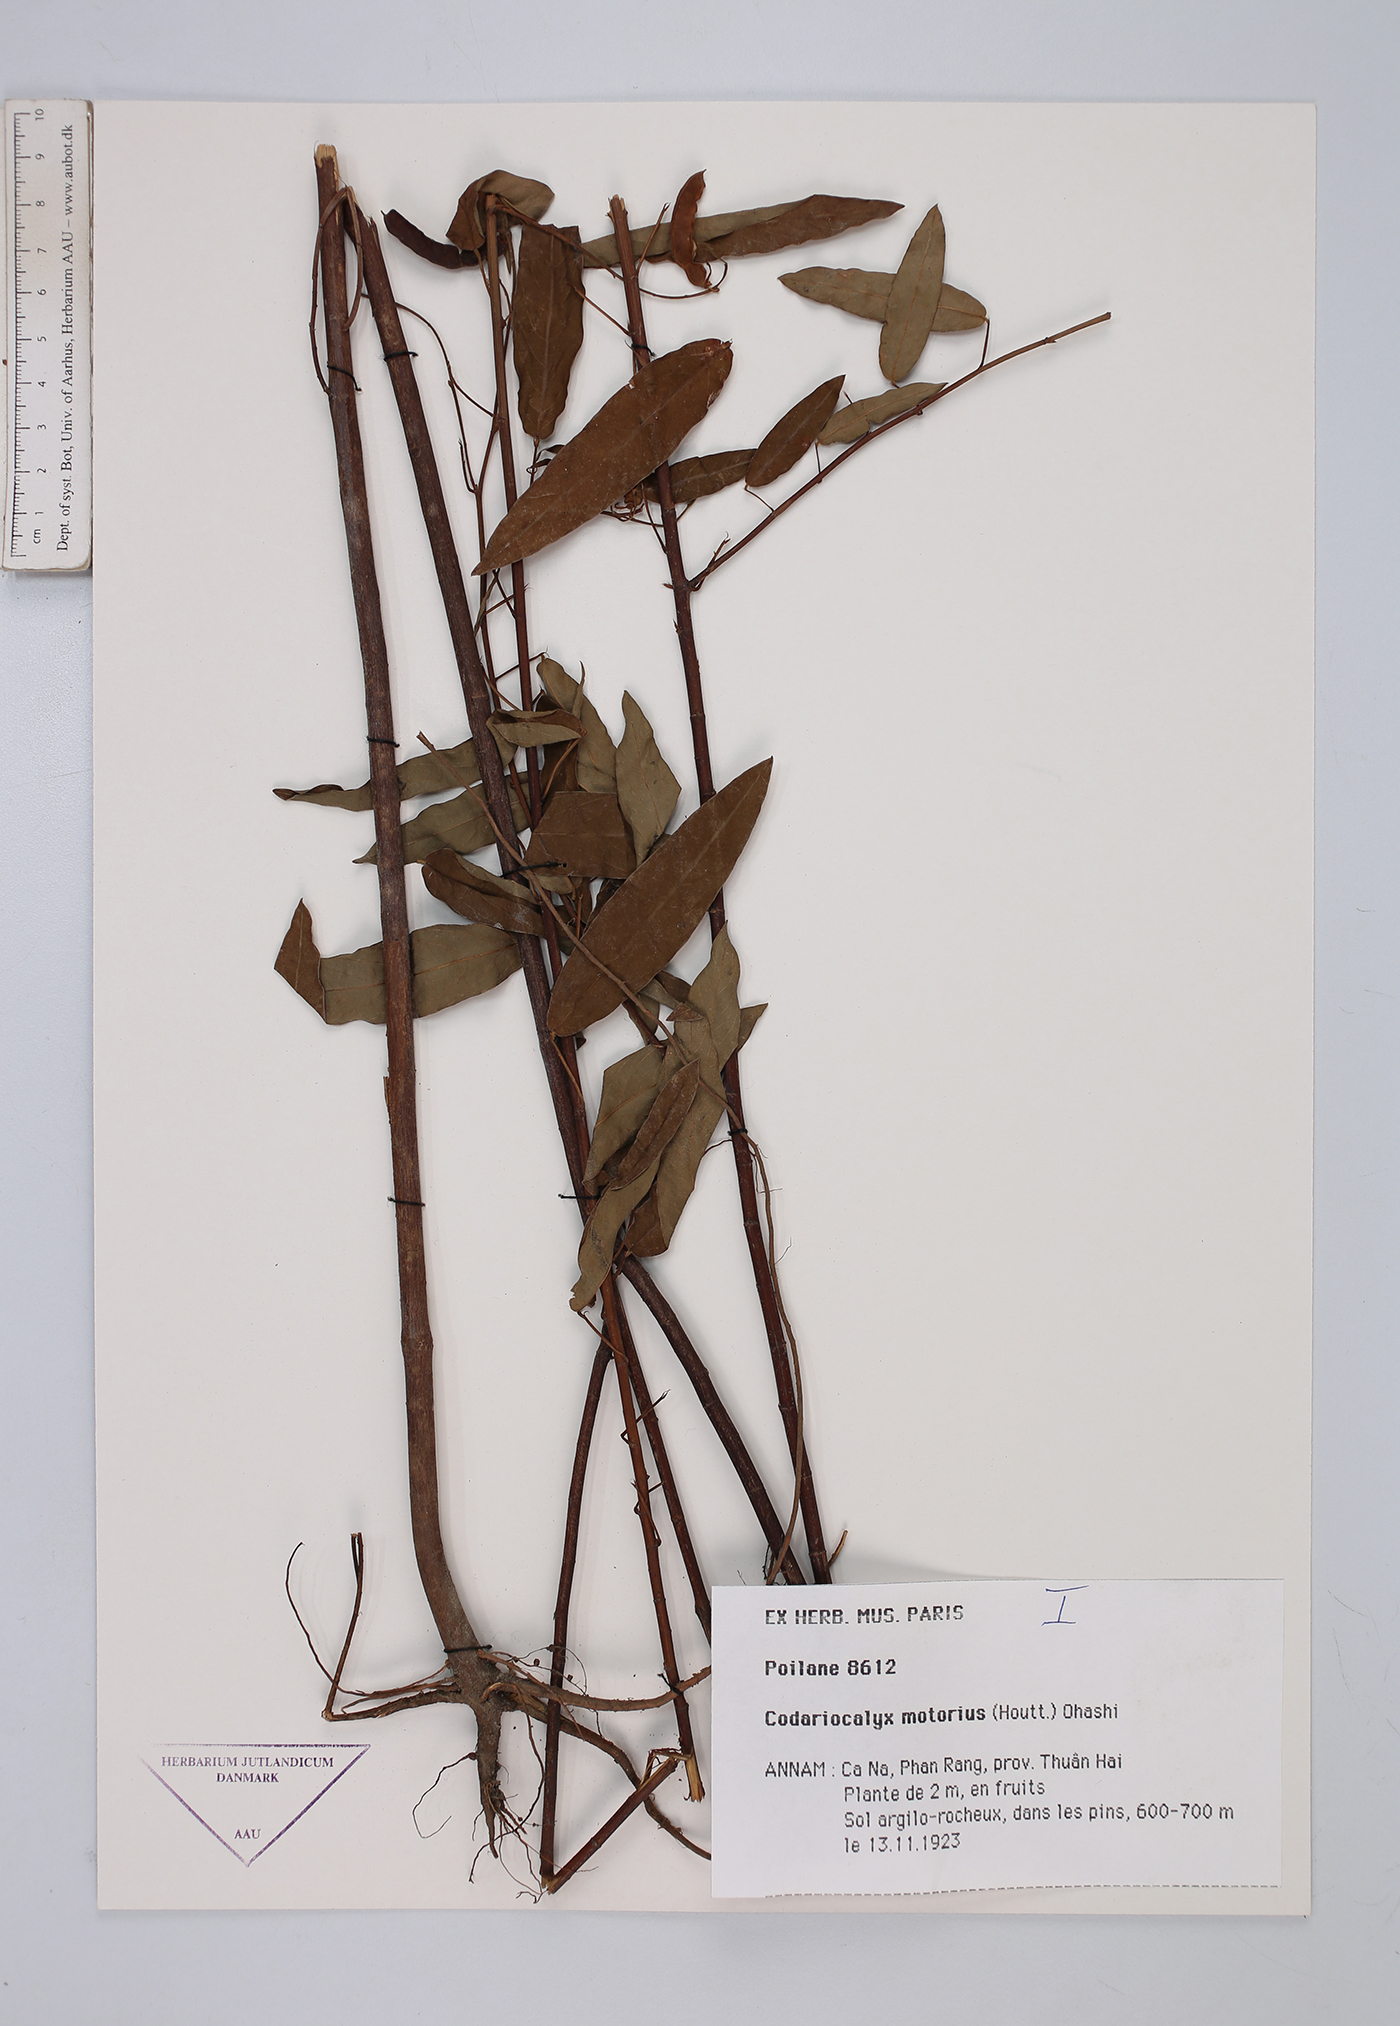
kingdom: Plantae
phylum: Tracheophyta
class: Magnoliopsida
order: Fabales
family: Fabaceae
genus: Codariocalyx
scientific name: Codariocalyx motorius
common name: Telegraph-plant
